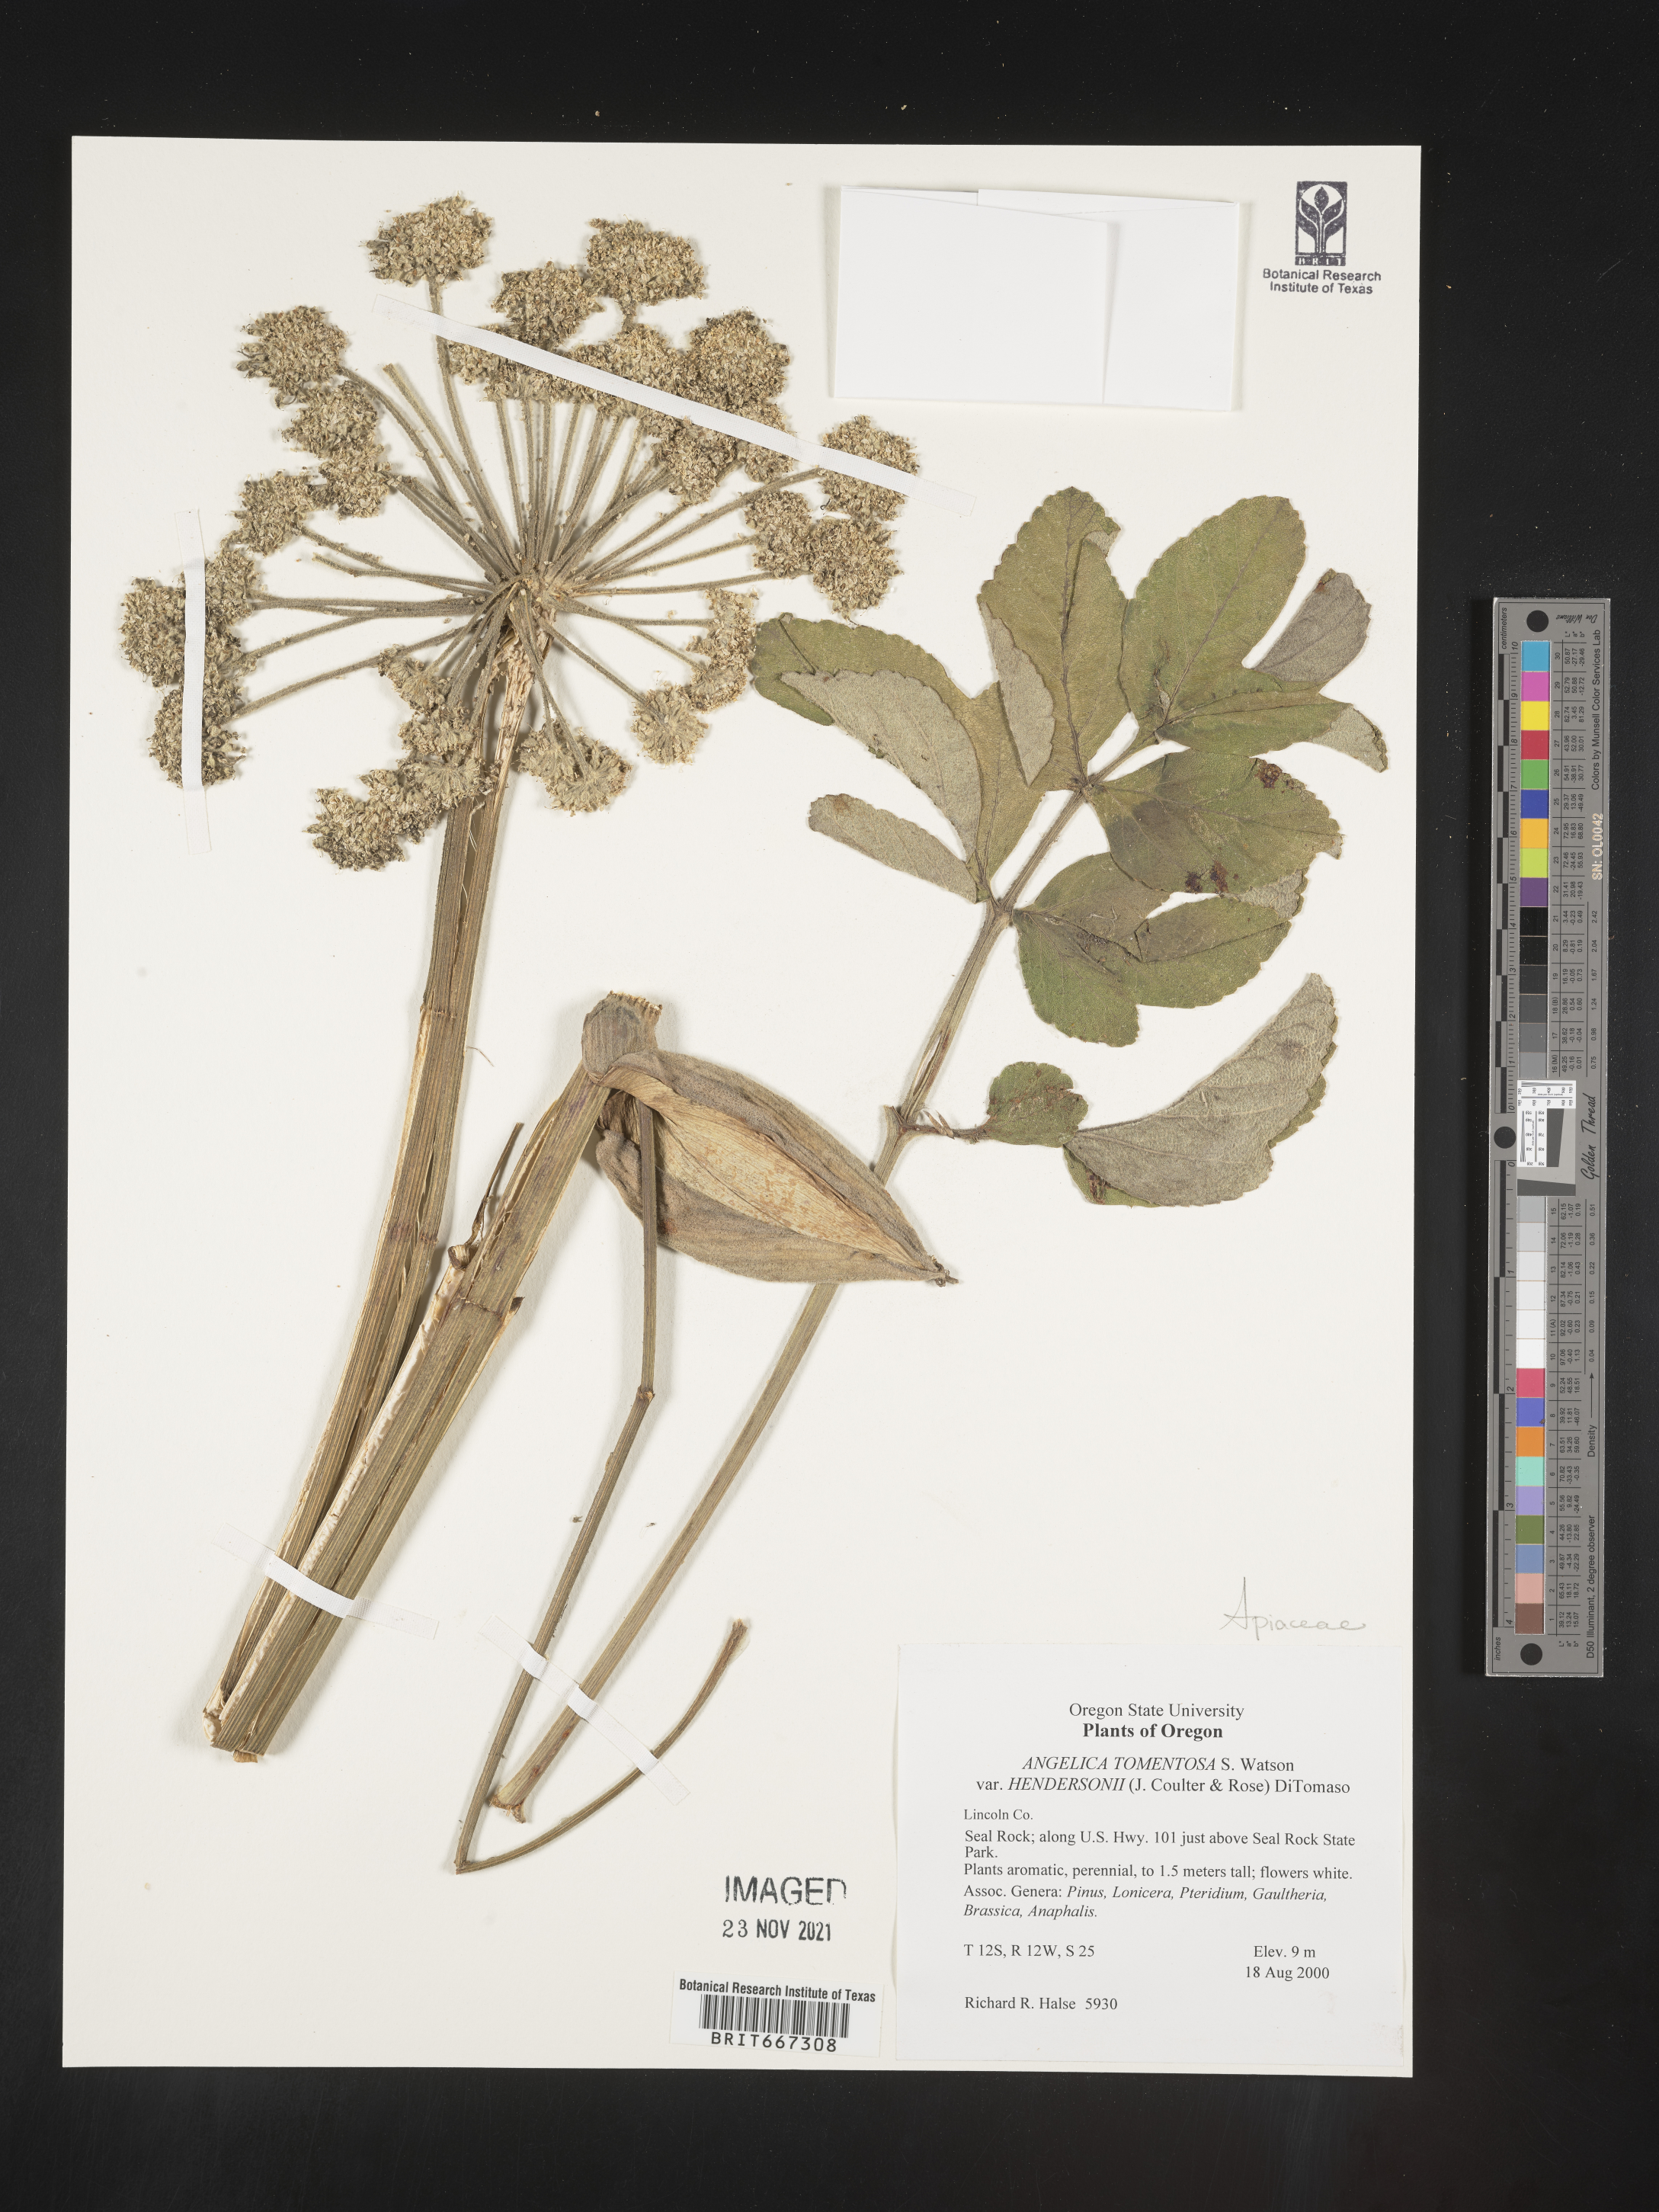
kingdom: Plantae
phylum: Tracheophyta
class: Magnoliopsida
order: Apiales
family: Apiaceae
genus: Angelica
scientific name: Angelica tomentosa
